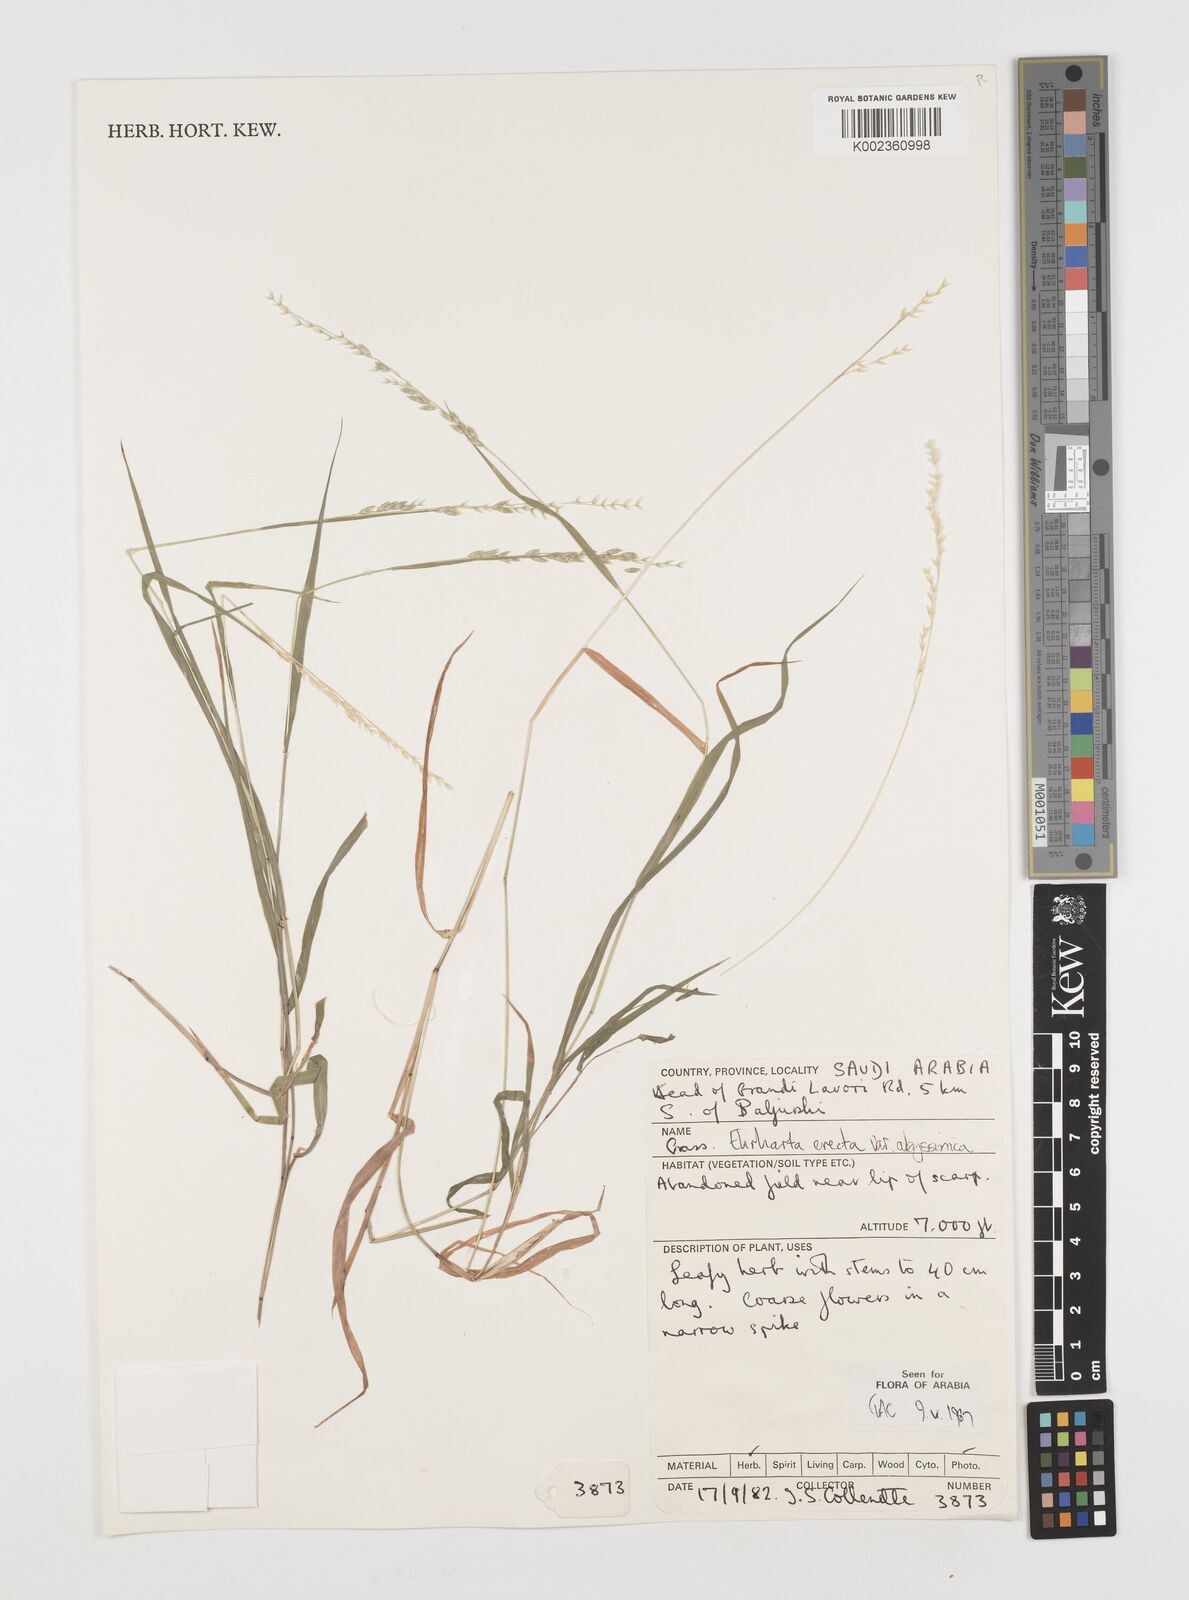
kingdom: Plantae
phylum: Tracheophyta
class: Liliopsida
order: Poales
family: Poaceae
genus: Ehrharta
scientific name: Ehrharta erecta
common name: Panic veldtgrass
